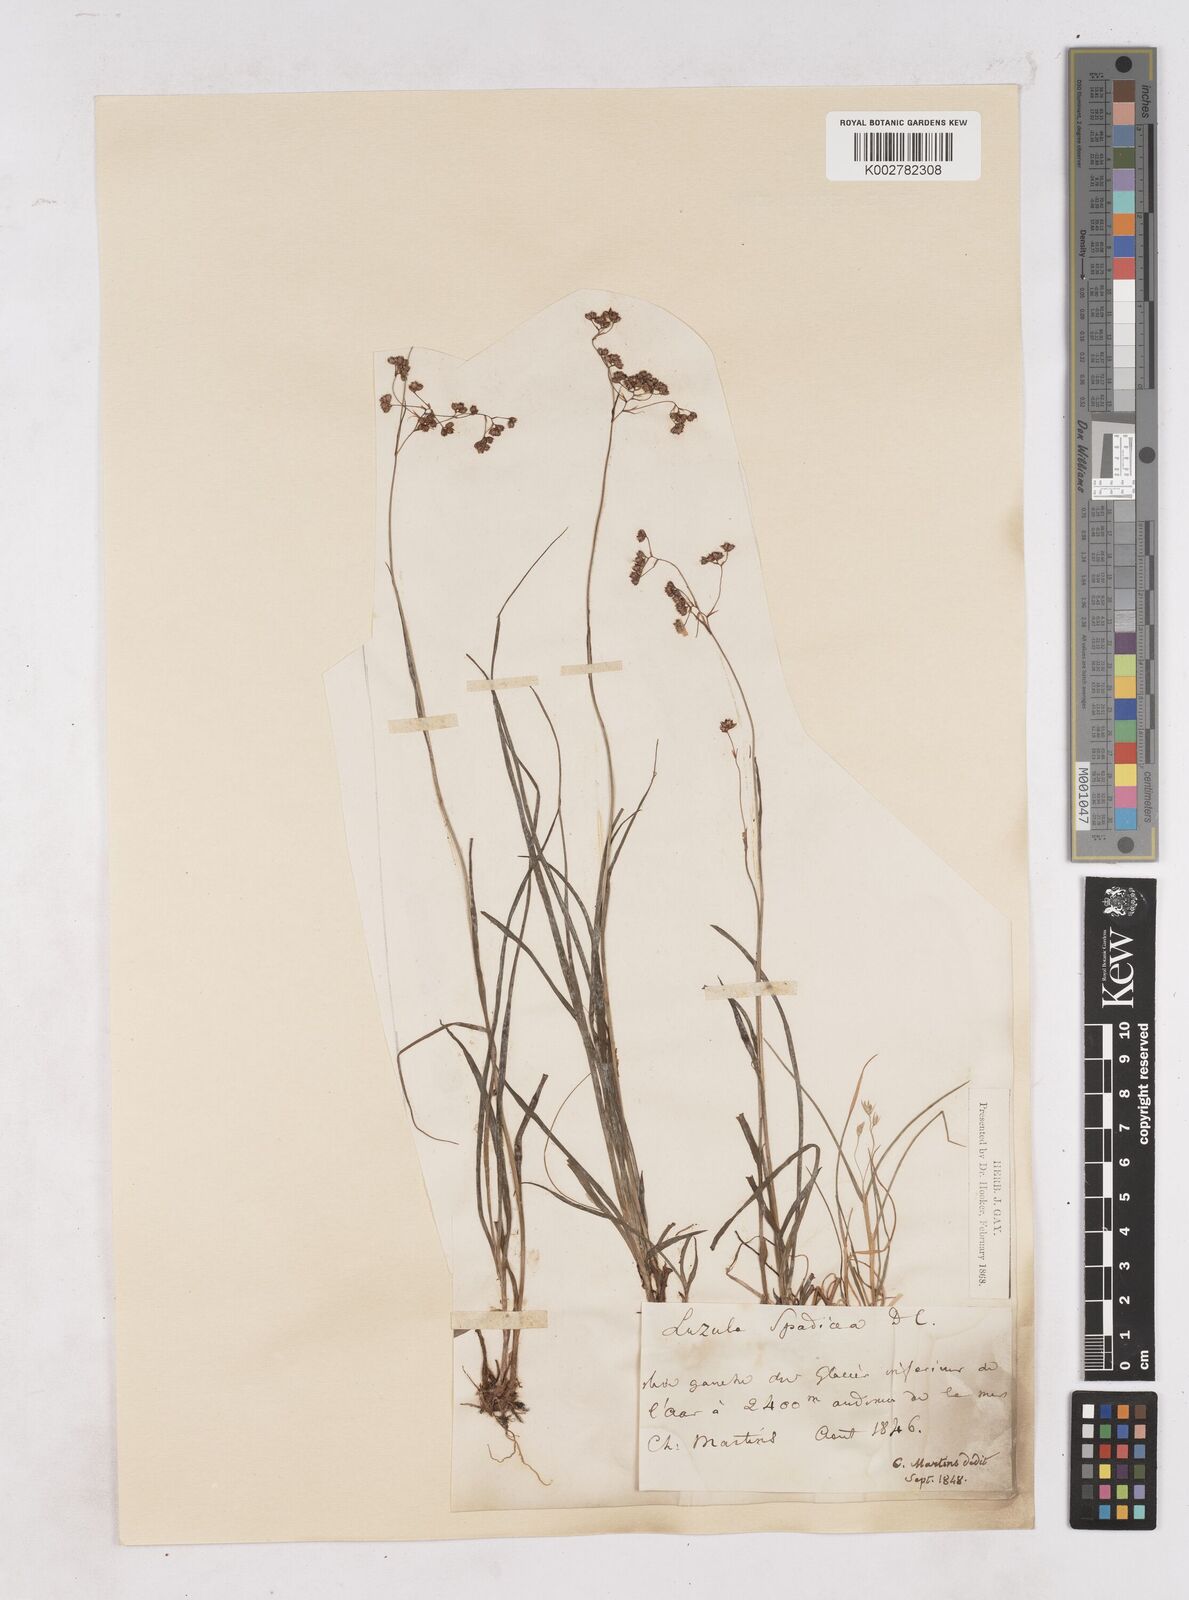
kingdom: Plantae
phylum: Tracheophyta
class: Liliopsida
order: Poales
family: Juncaceae
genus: Luzula
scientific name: Luzula alpinopilosa
